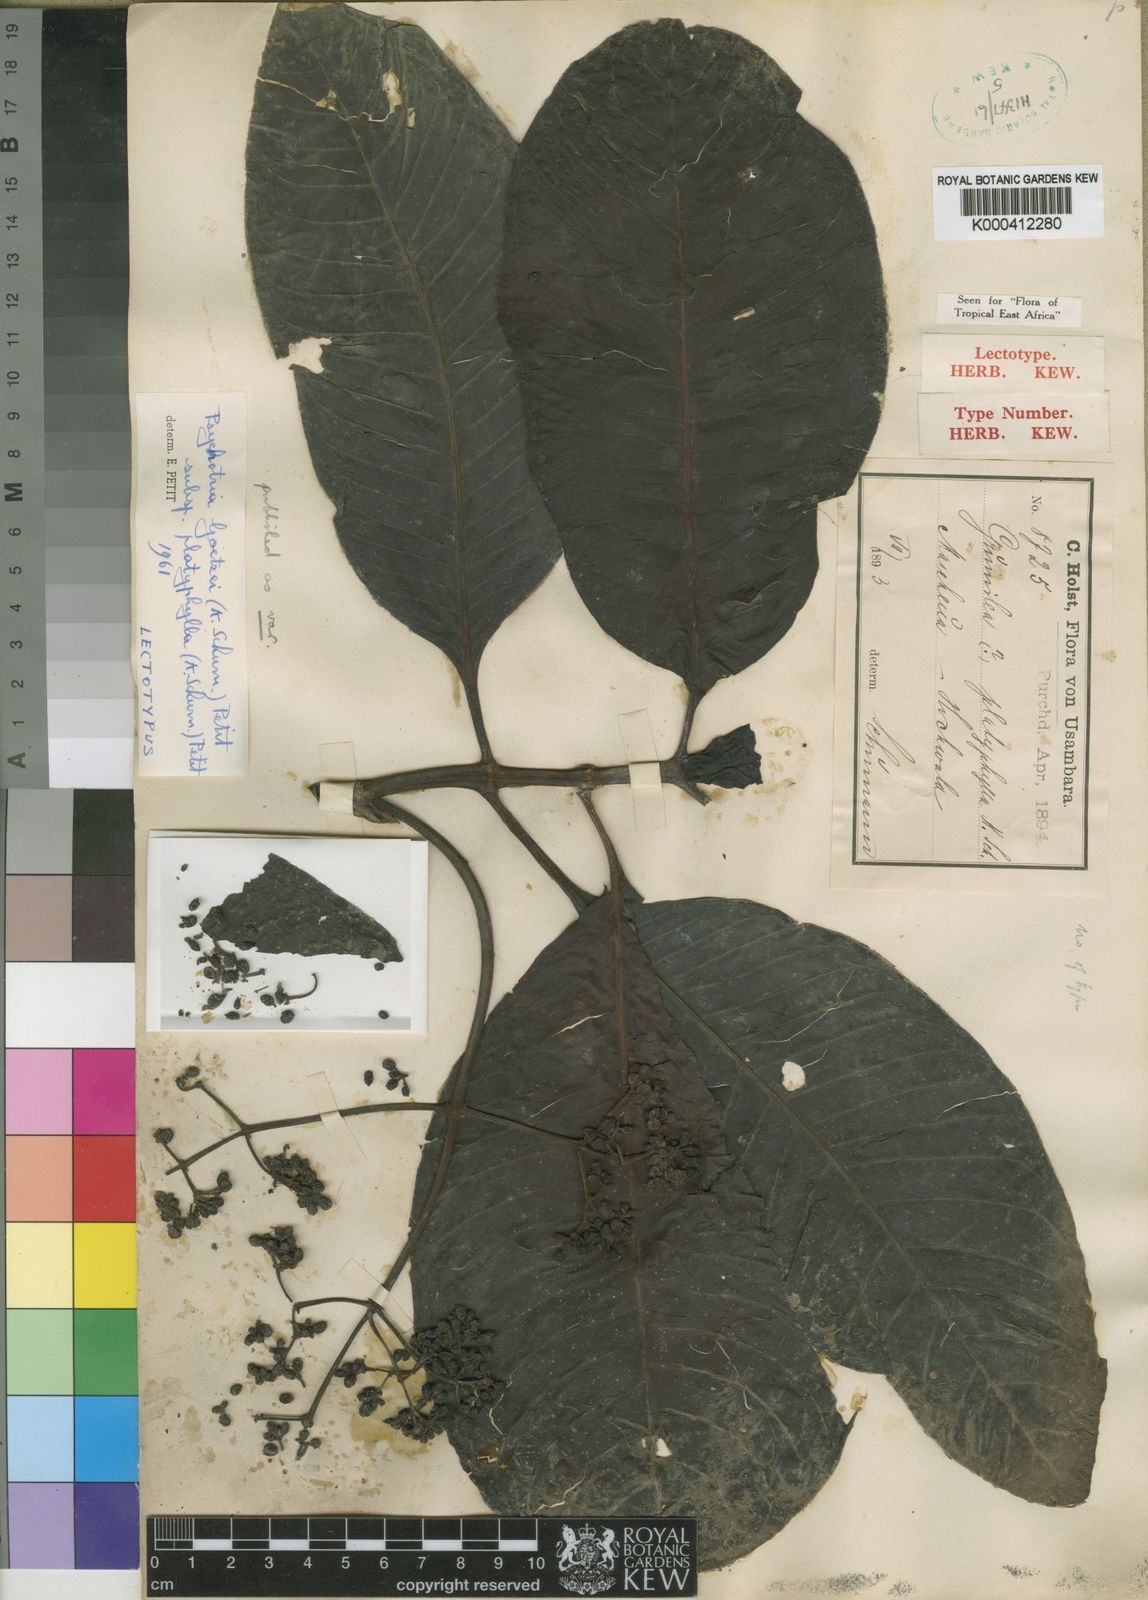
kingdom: Plantae
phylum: Tracheophyta
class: Magnoliopsida
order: Gentianales
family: Rubiaceae
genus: Psychotria
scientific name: Psychotria goetzei
